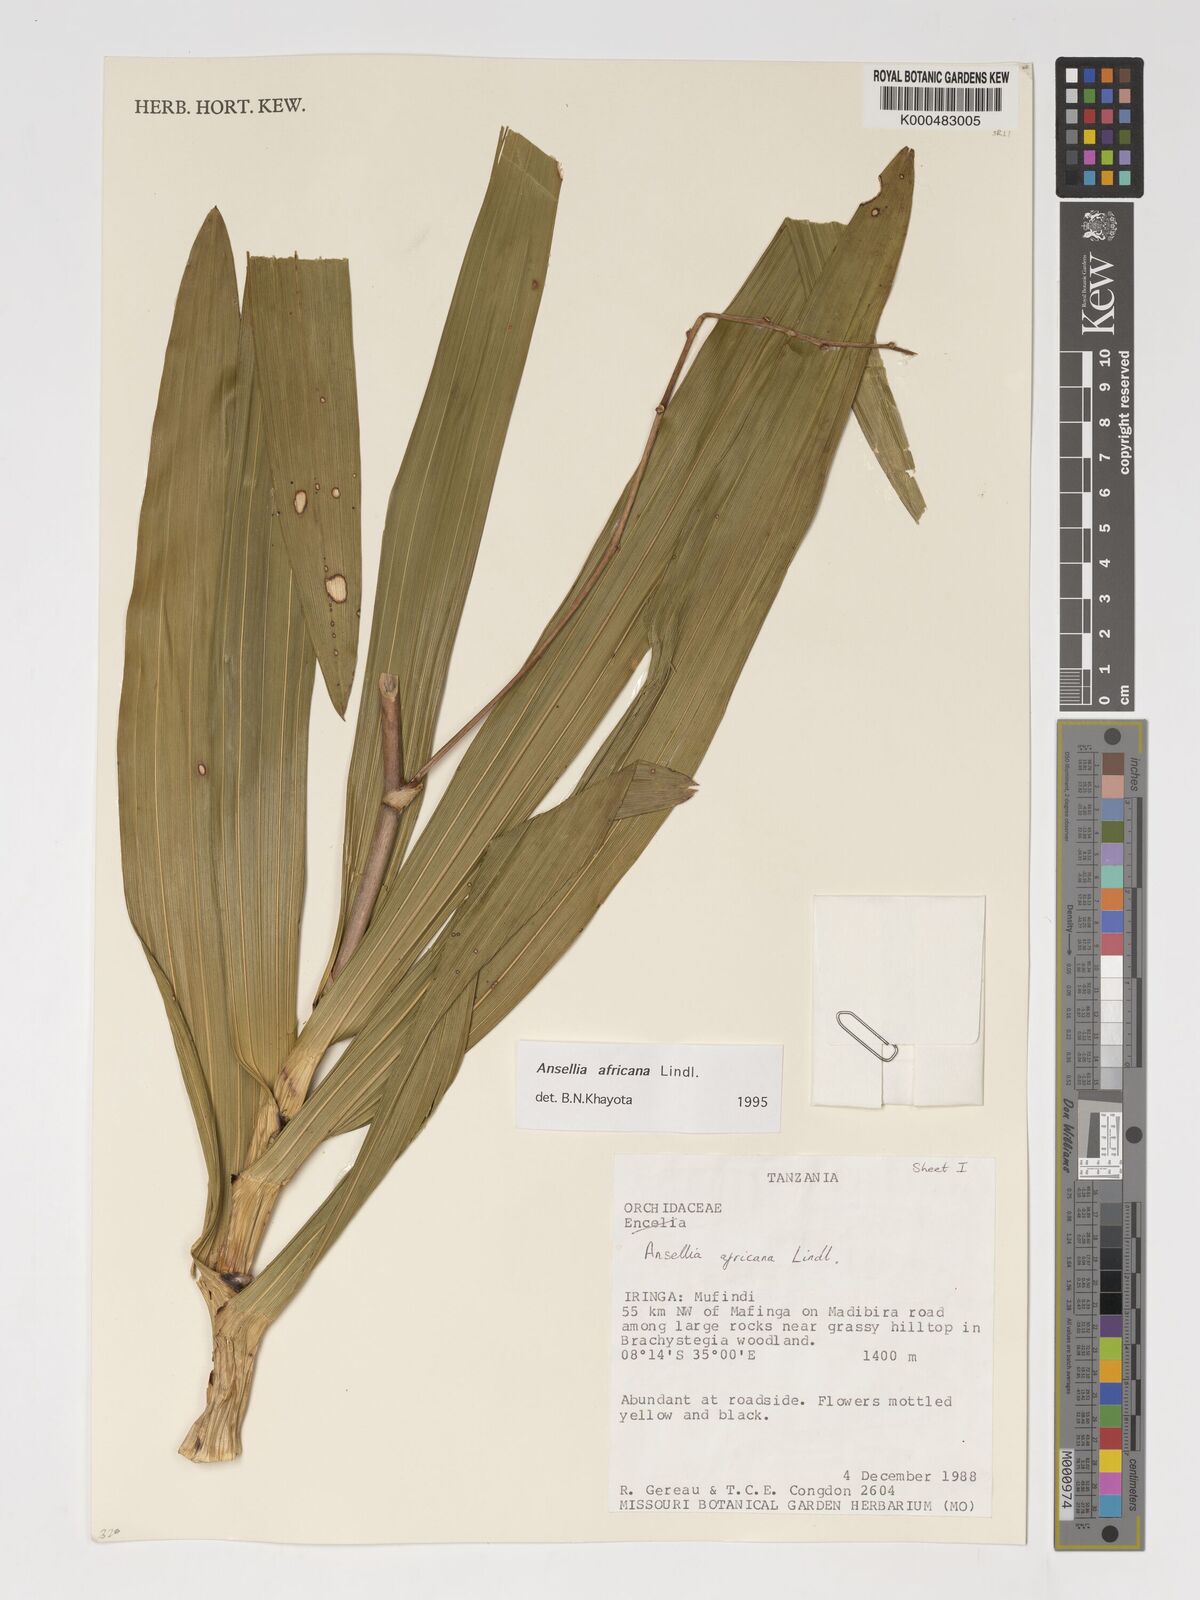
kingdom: Plantae
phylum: Tracheophyta
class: Liliopsida
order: Asparagales
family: Orchidaceae
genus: Ansellia
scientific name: Ansellia africana
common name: African ansellia
